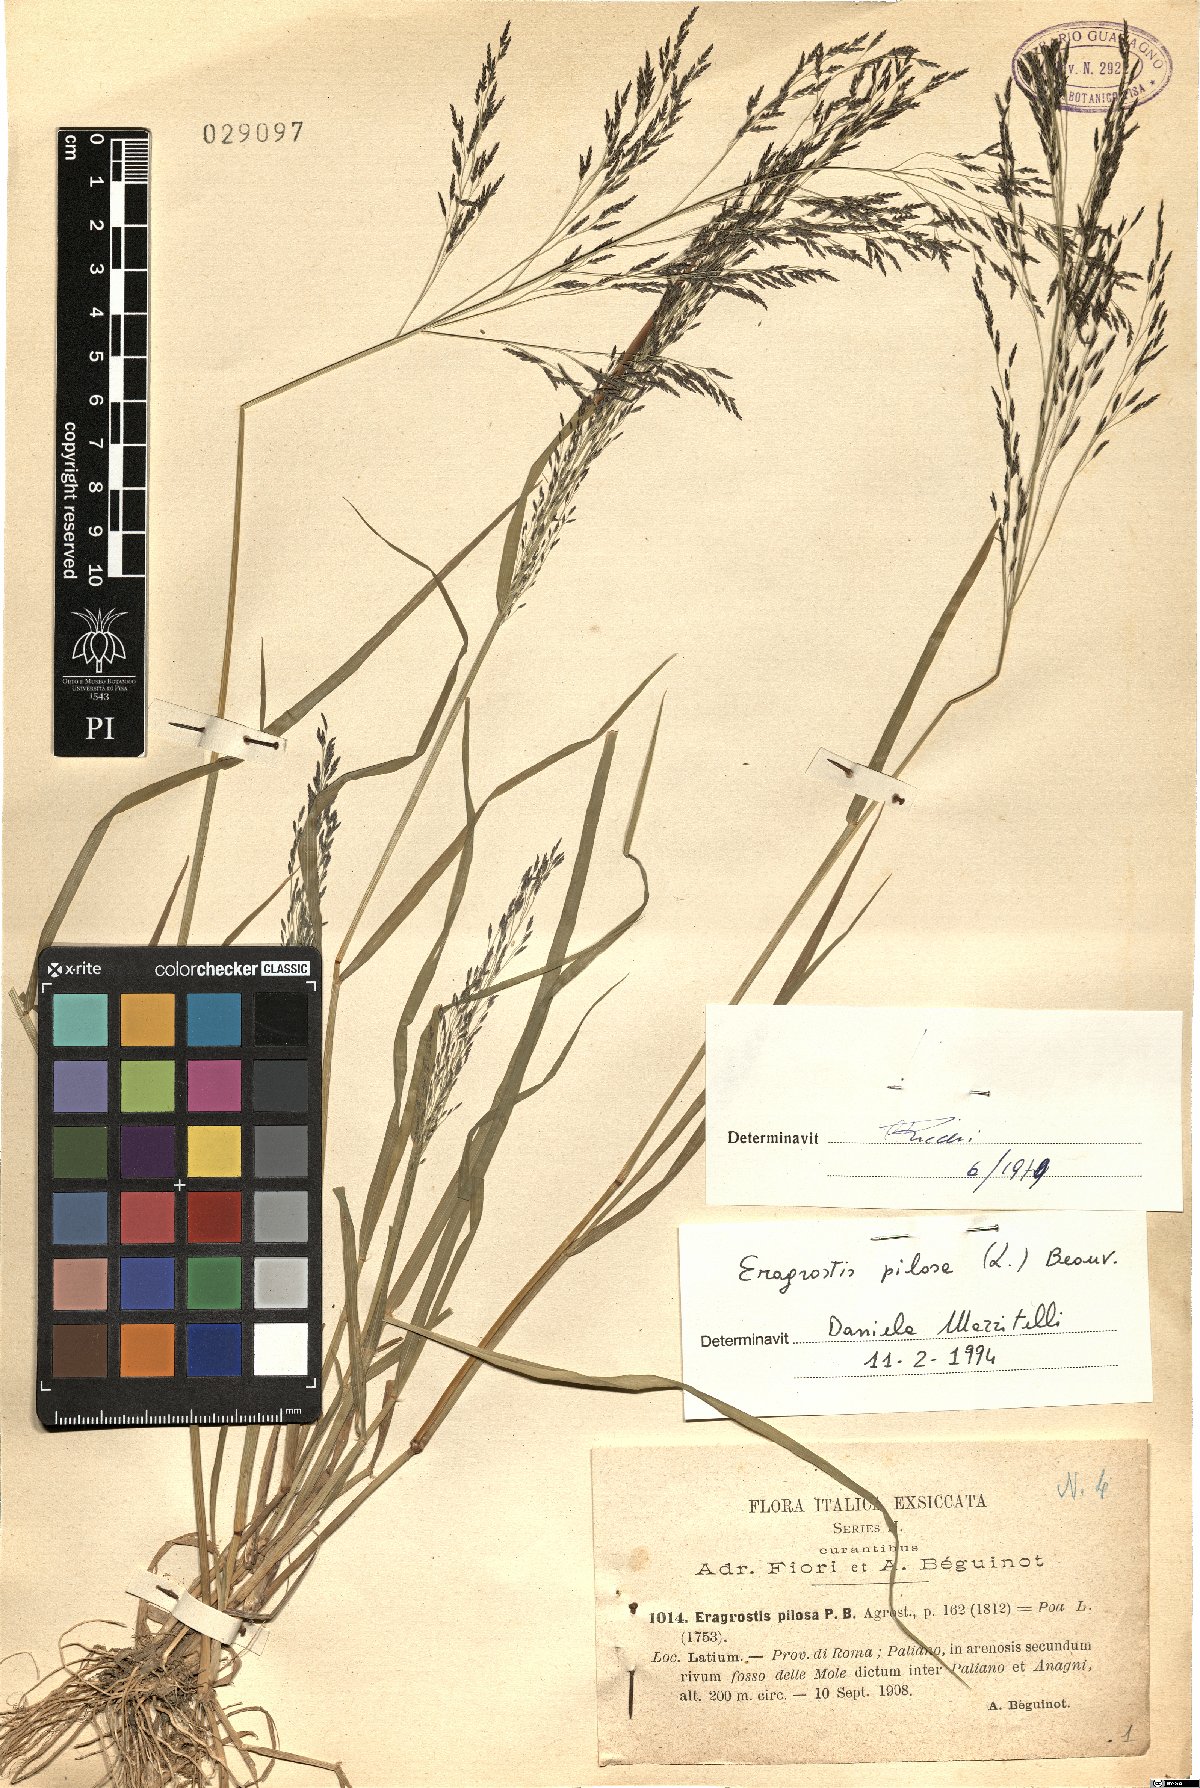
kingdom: Plantae
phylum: Tracheophyta
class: Liliopsida
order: Poales
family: Poaceae
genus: Eragrostis
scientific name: Eragrostis pilosa
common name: Indian lovegrass
